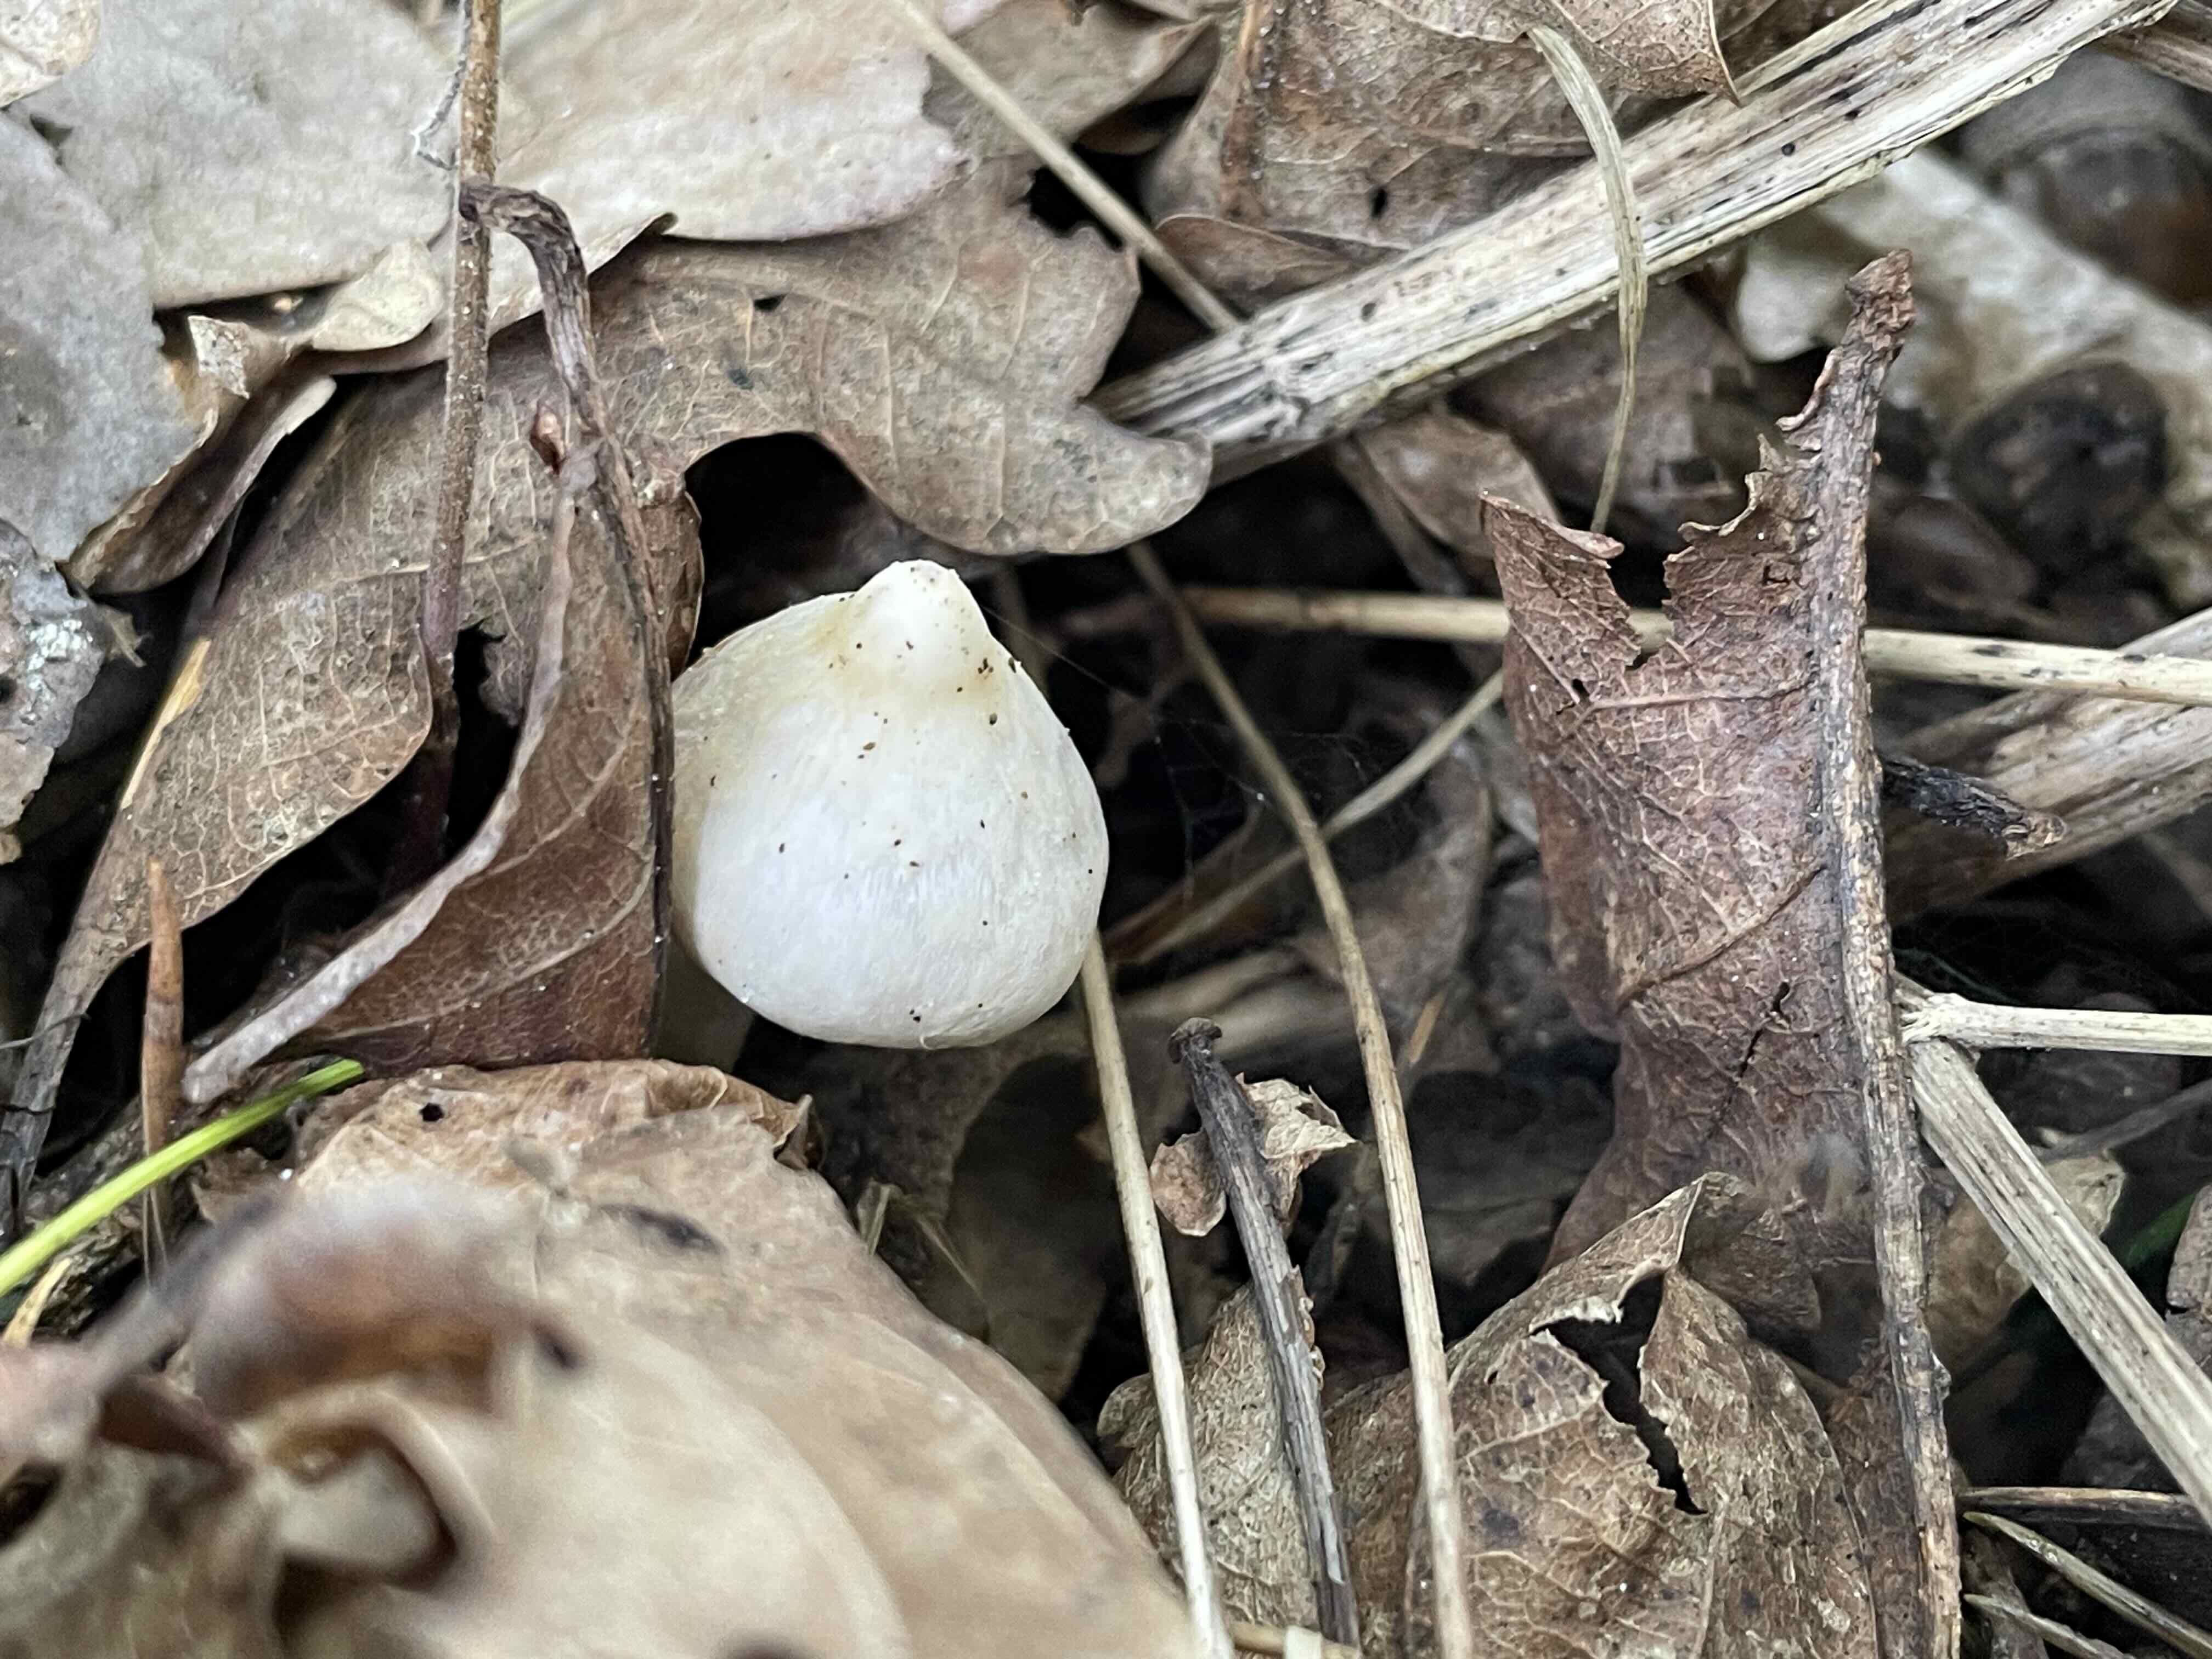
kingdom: Fungi
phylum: Basidiomycota
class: Agaricomycetes
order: Agaricales
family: Inocybaceae
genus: Inocybe
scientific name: Inocybe
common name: almindelig trævlhat
